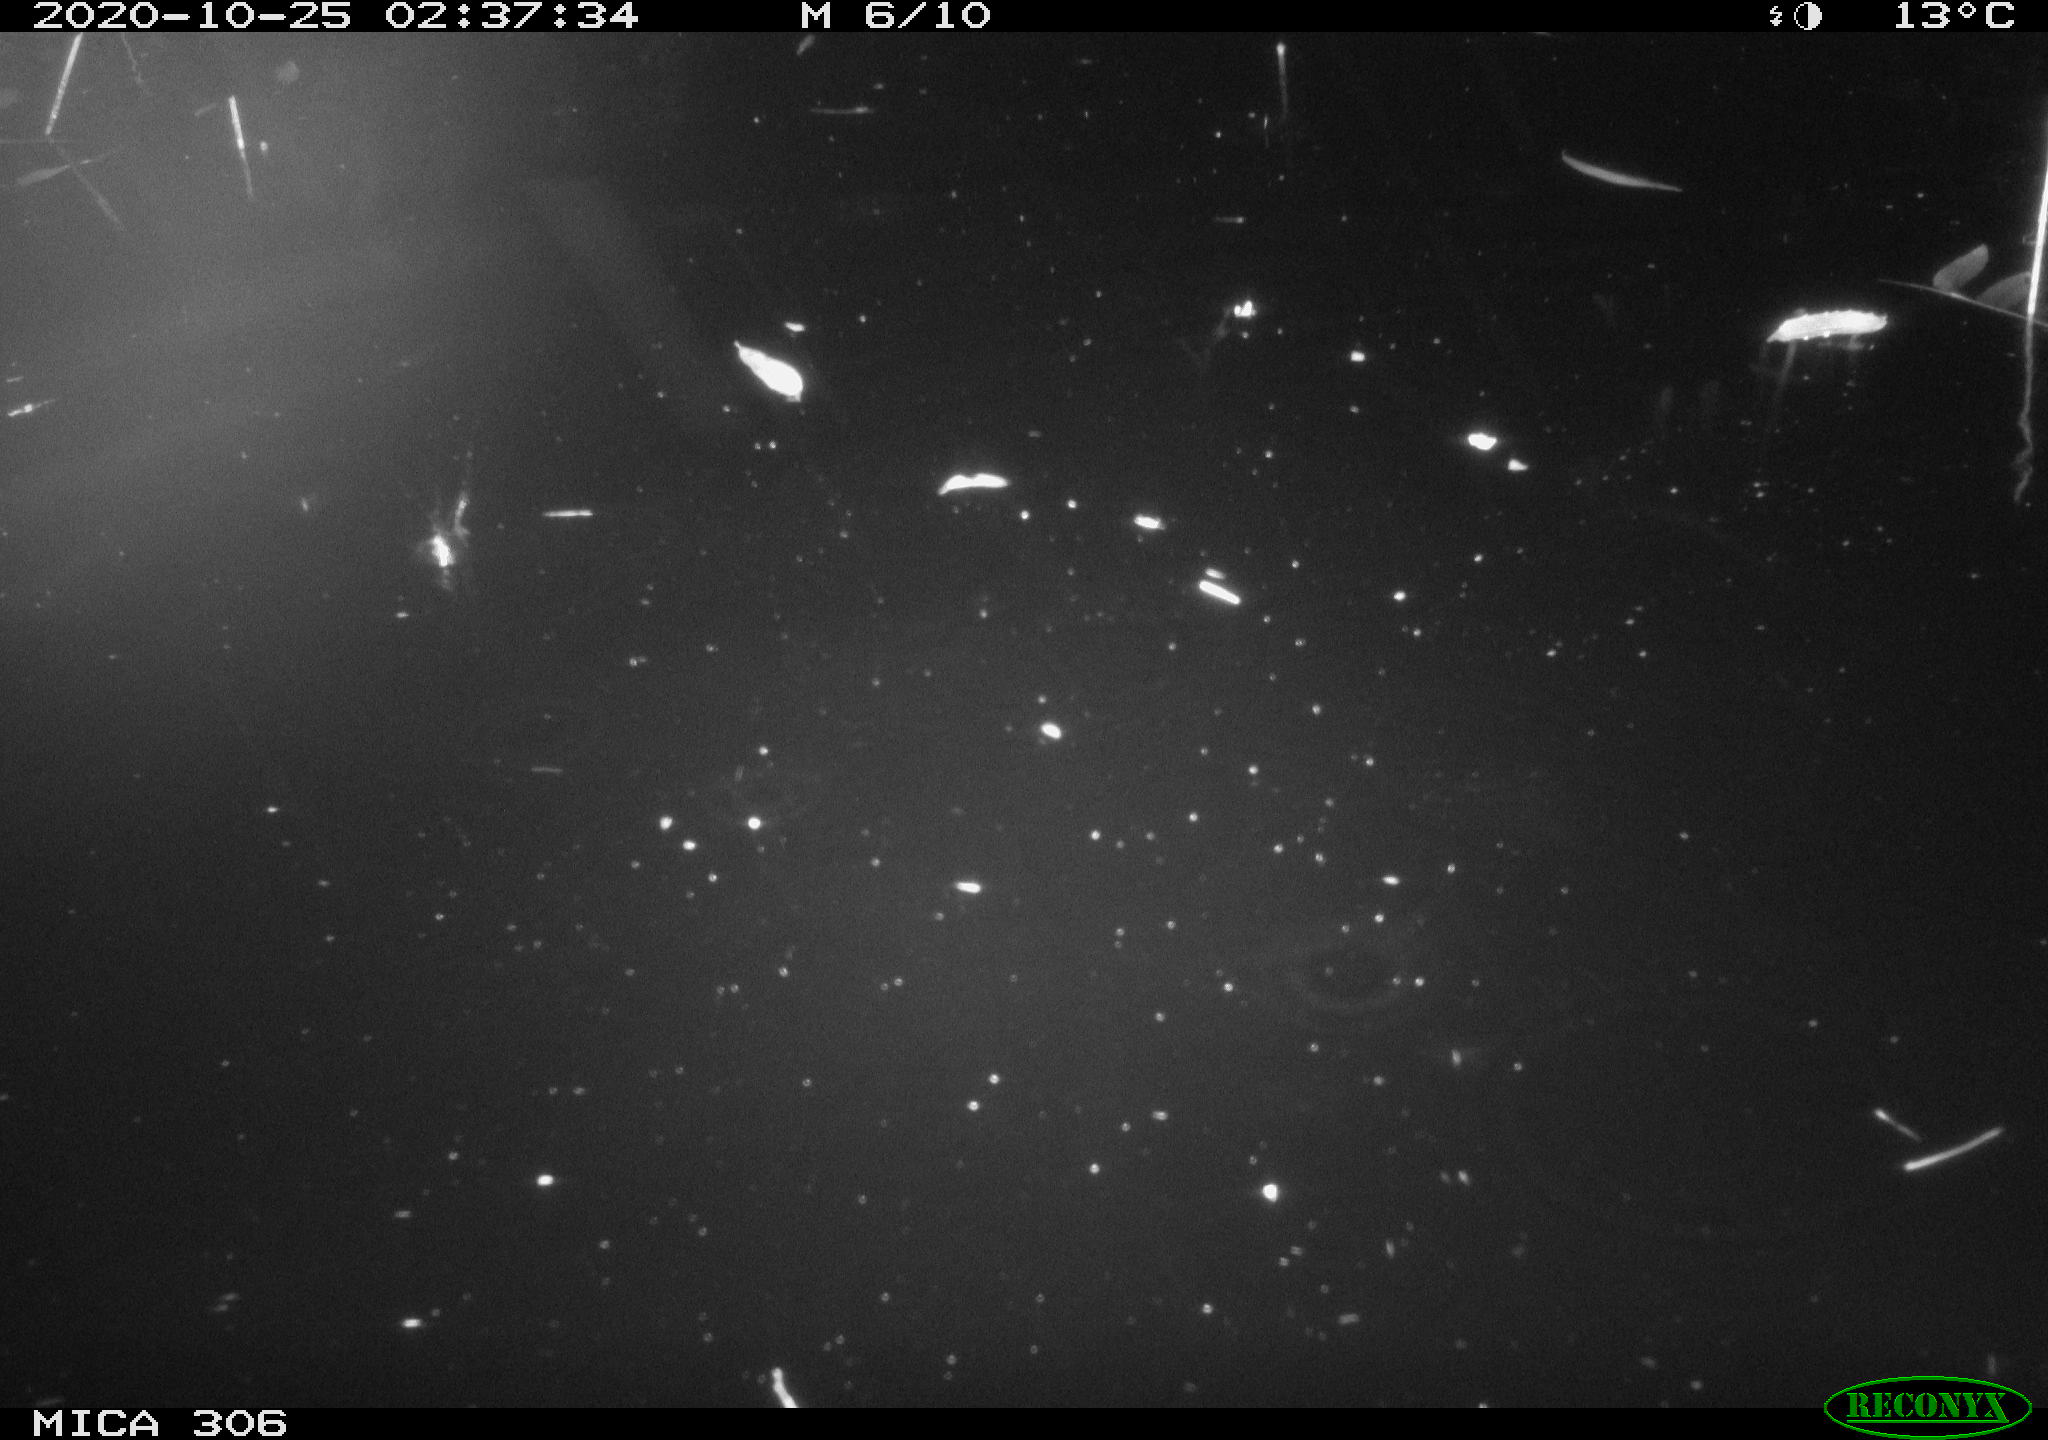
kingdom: Animalia
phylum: Chordata
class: Mammalia
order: Rodentia
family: Muridae
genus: Rattus
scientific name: Rattus norvegicus
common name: Brown rat
